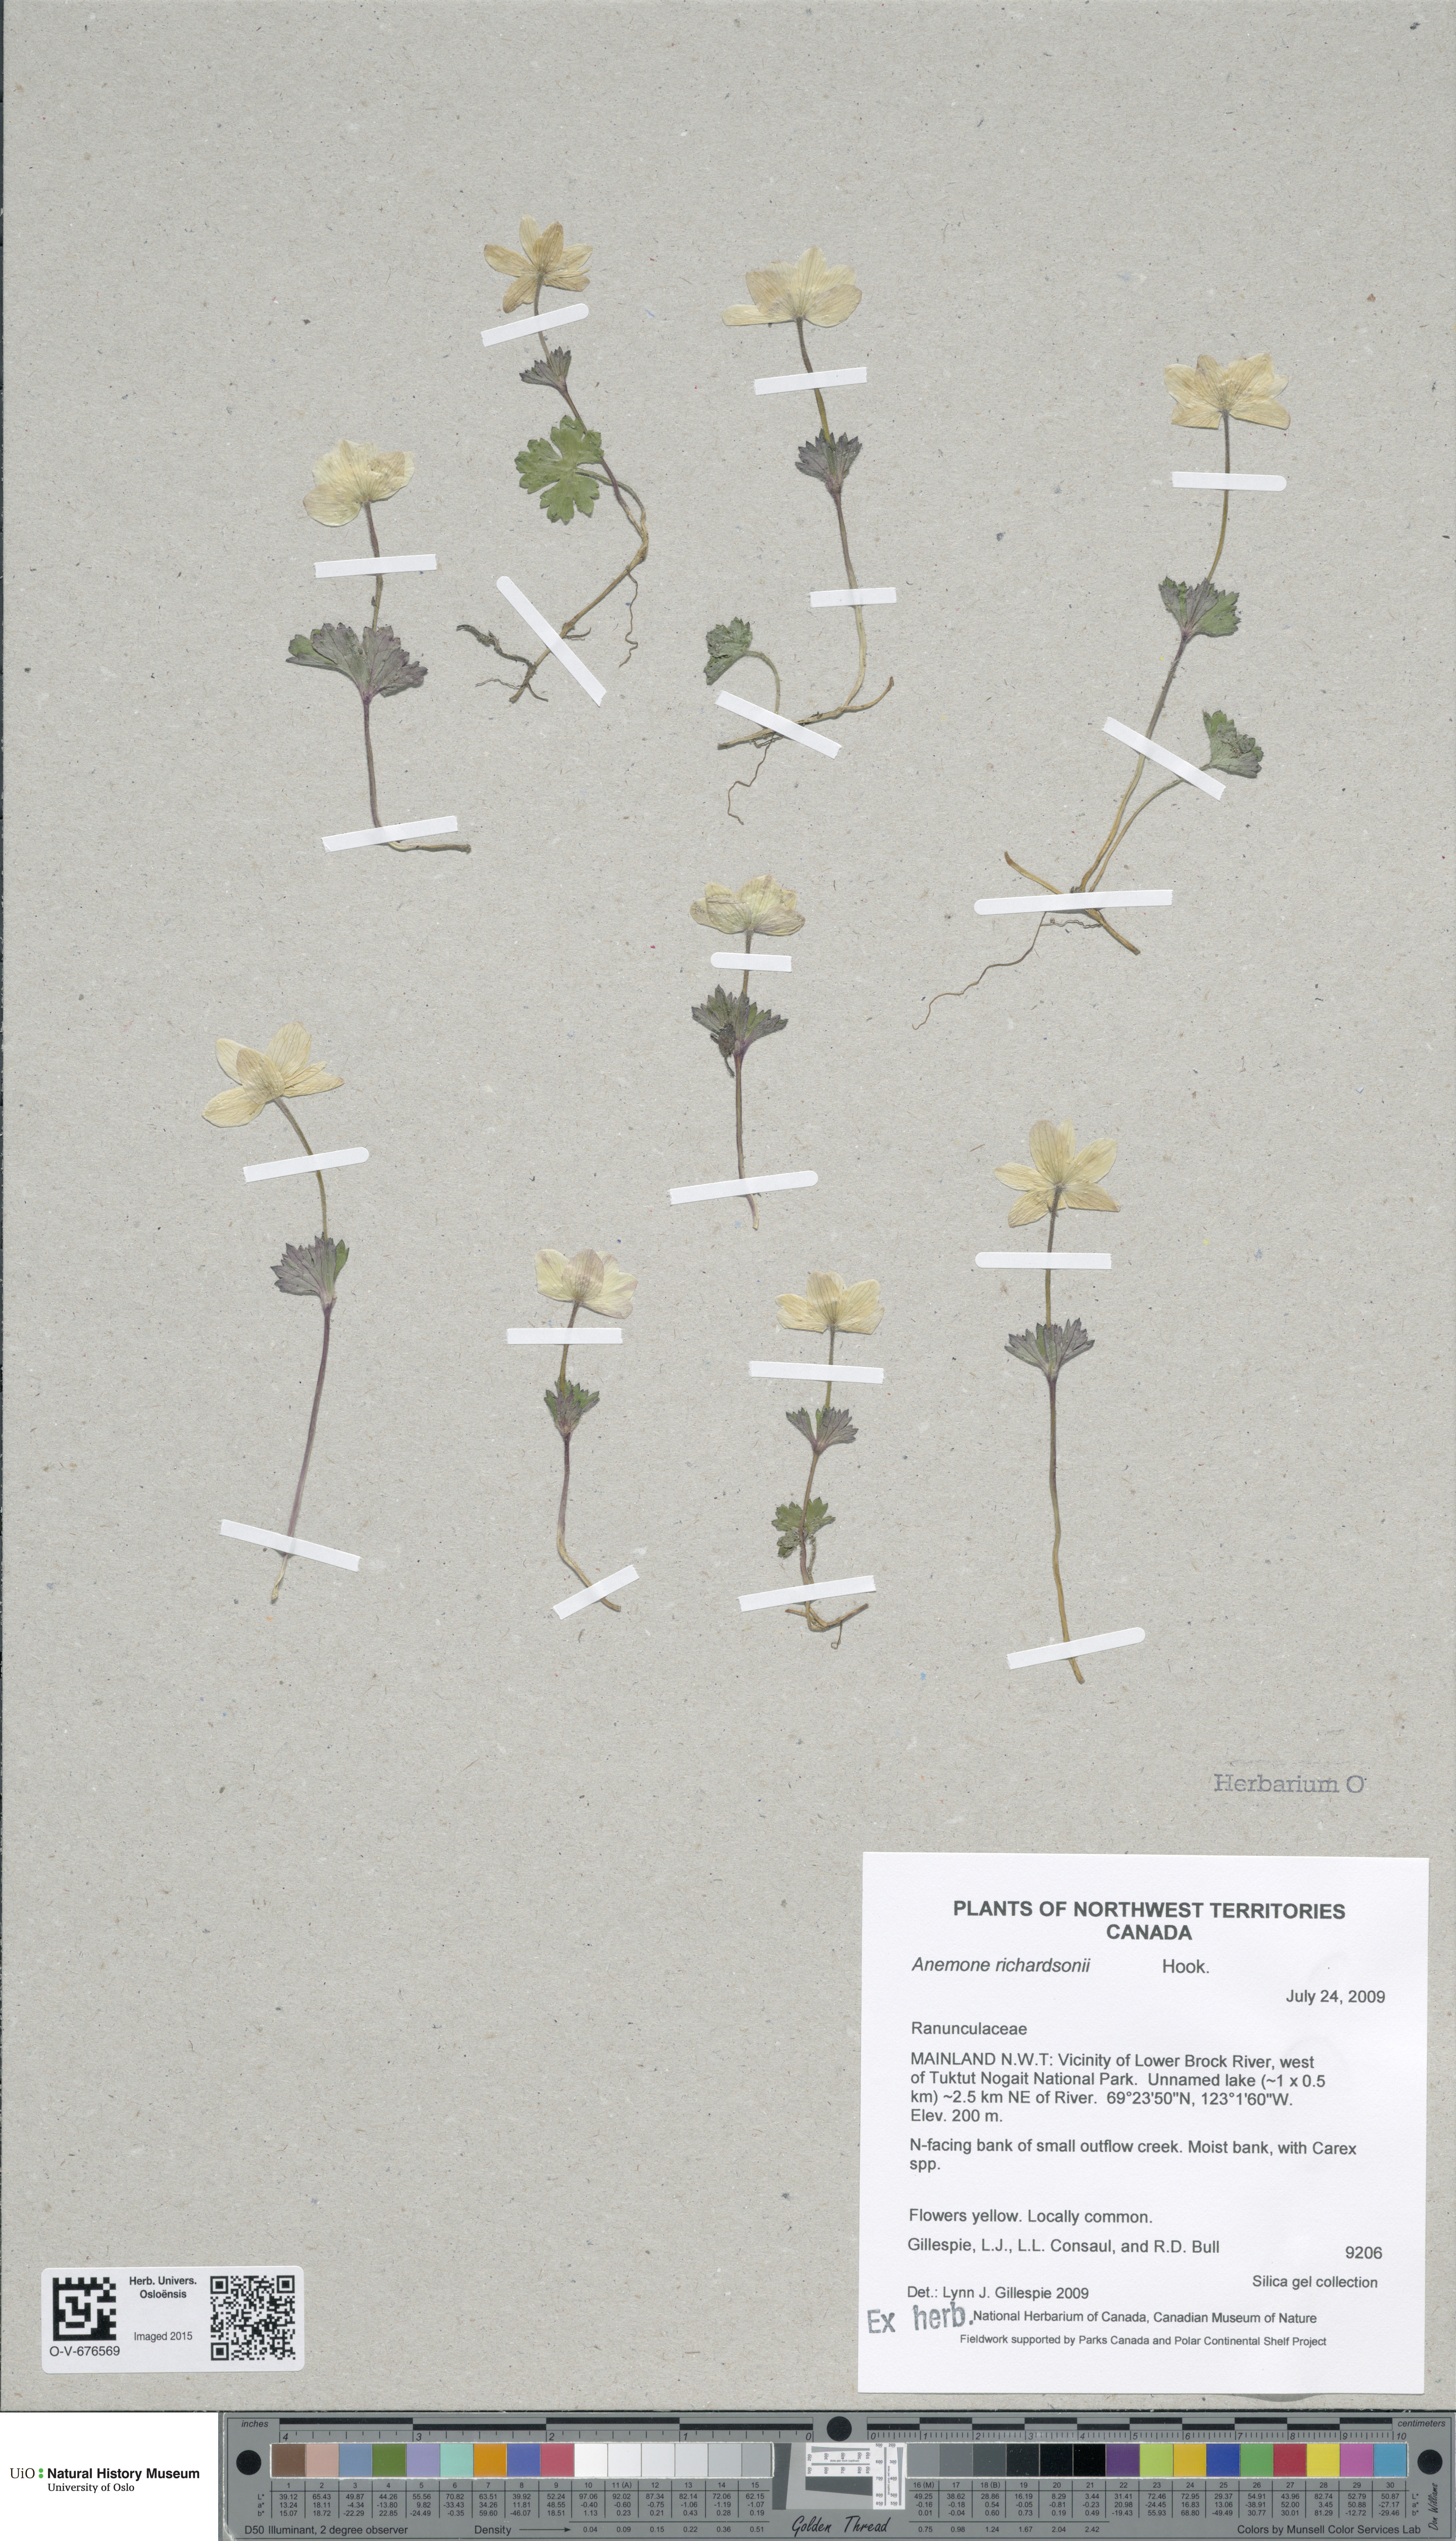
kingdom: Plantae
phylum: Tracheophyta
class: Magnoliopsida
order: Ranunculales
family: Ranunculaceae
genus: Anemonastrum
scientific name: Anemonastrum richardsonii
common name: Richardson's anemone
